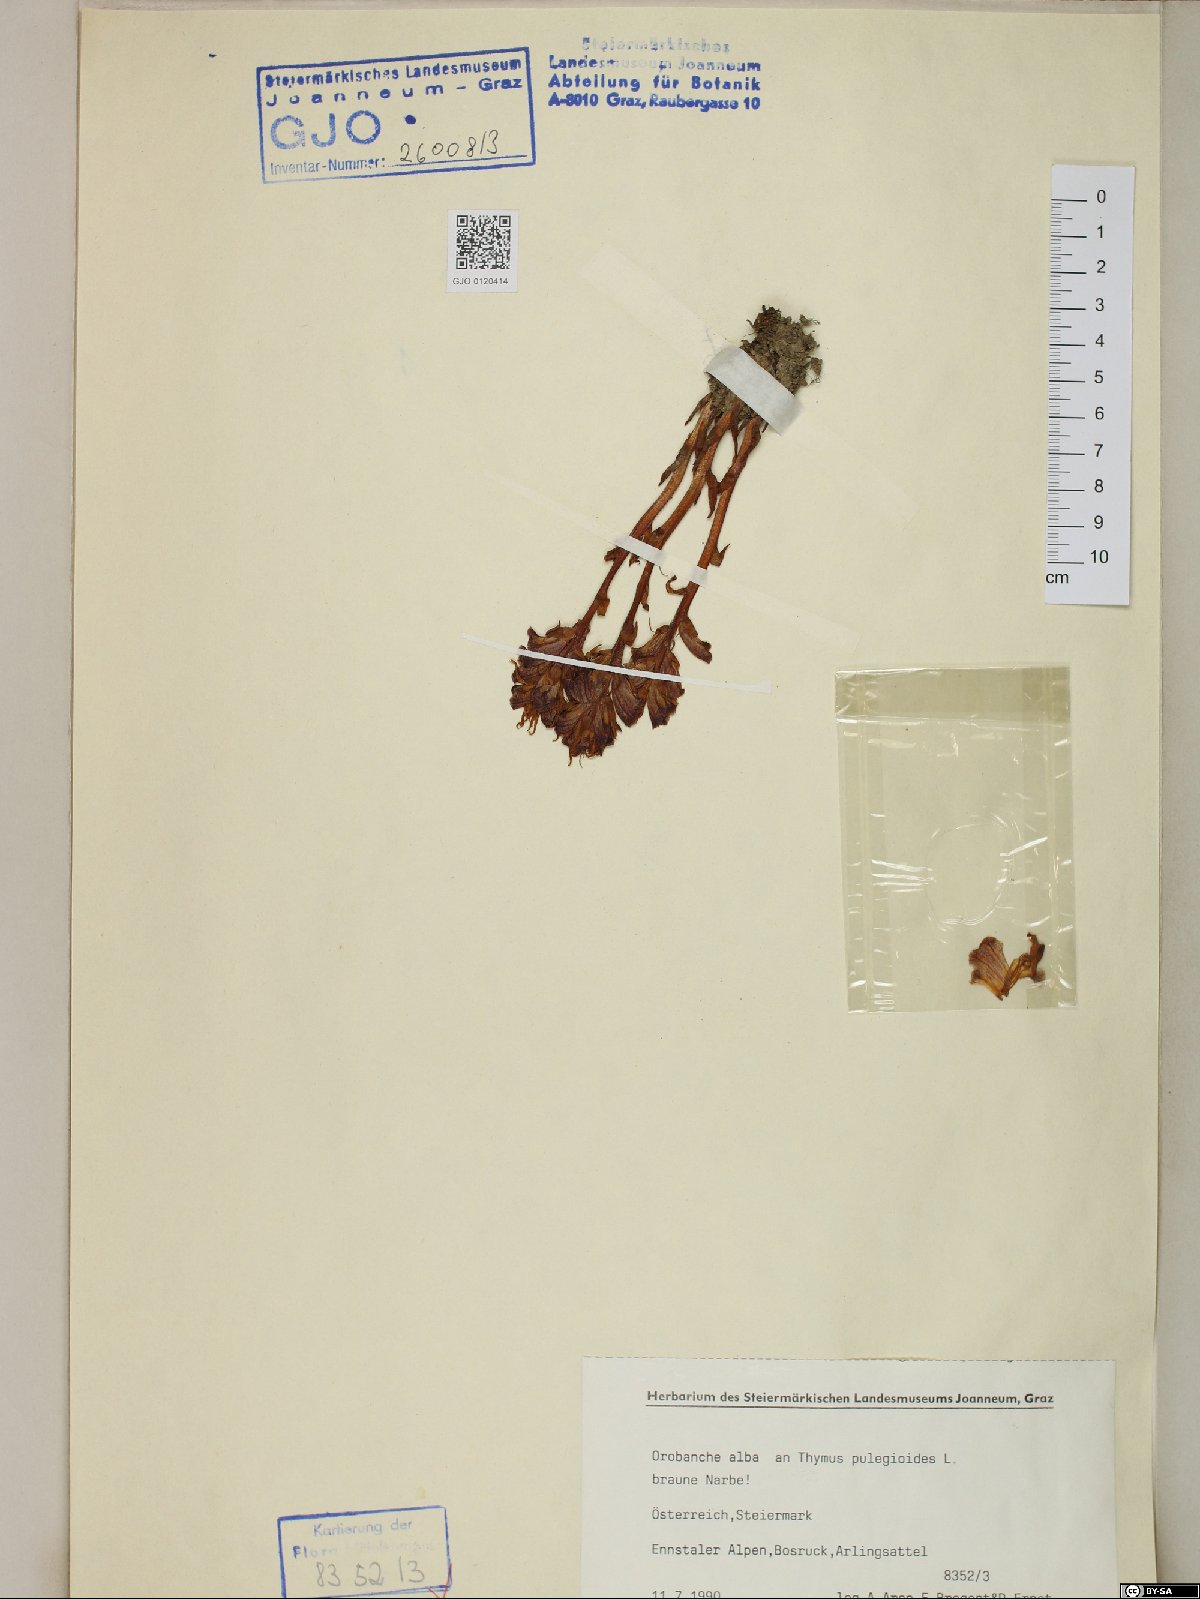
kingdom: Plantae
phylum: Tracheophyta
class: Magnoliopsida
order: Lamiales
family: Orobanchaceae
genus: Orobanche
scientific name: Orobanche alba
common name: Thyme broomrape
